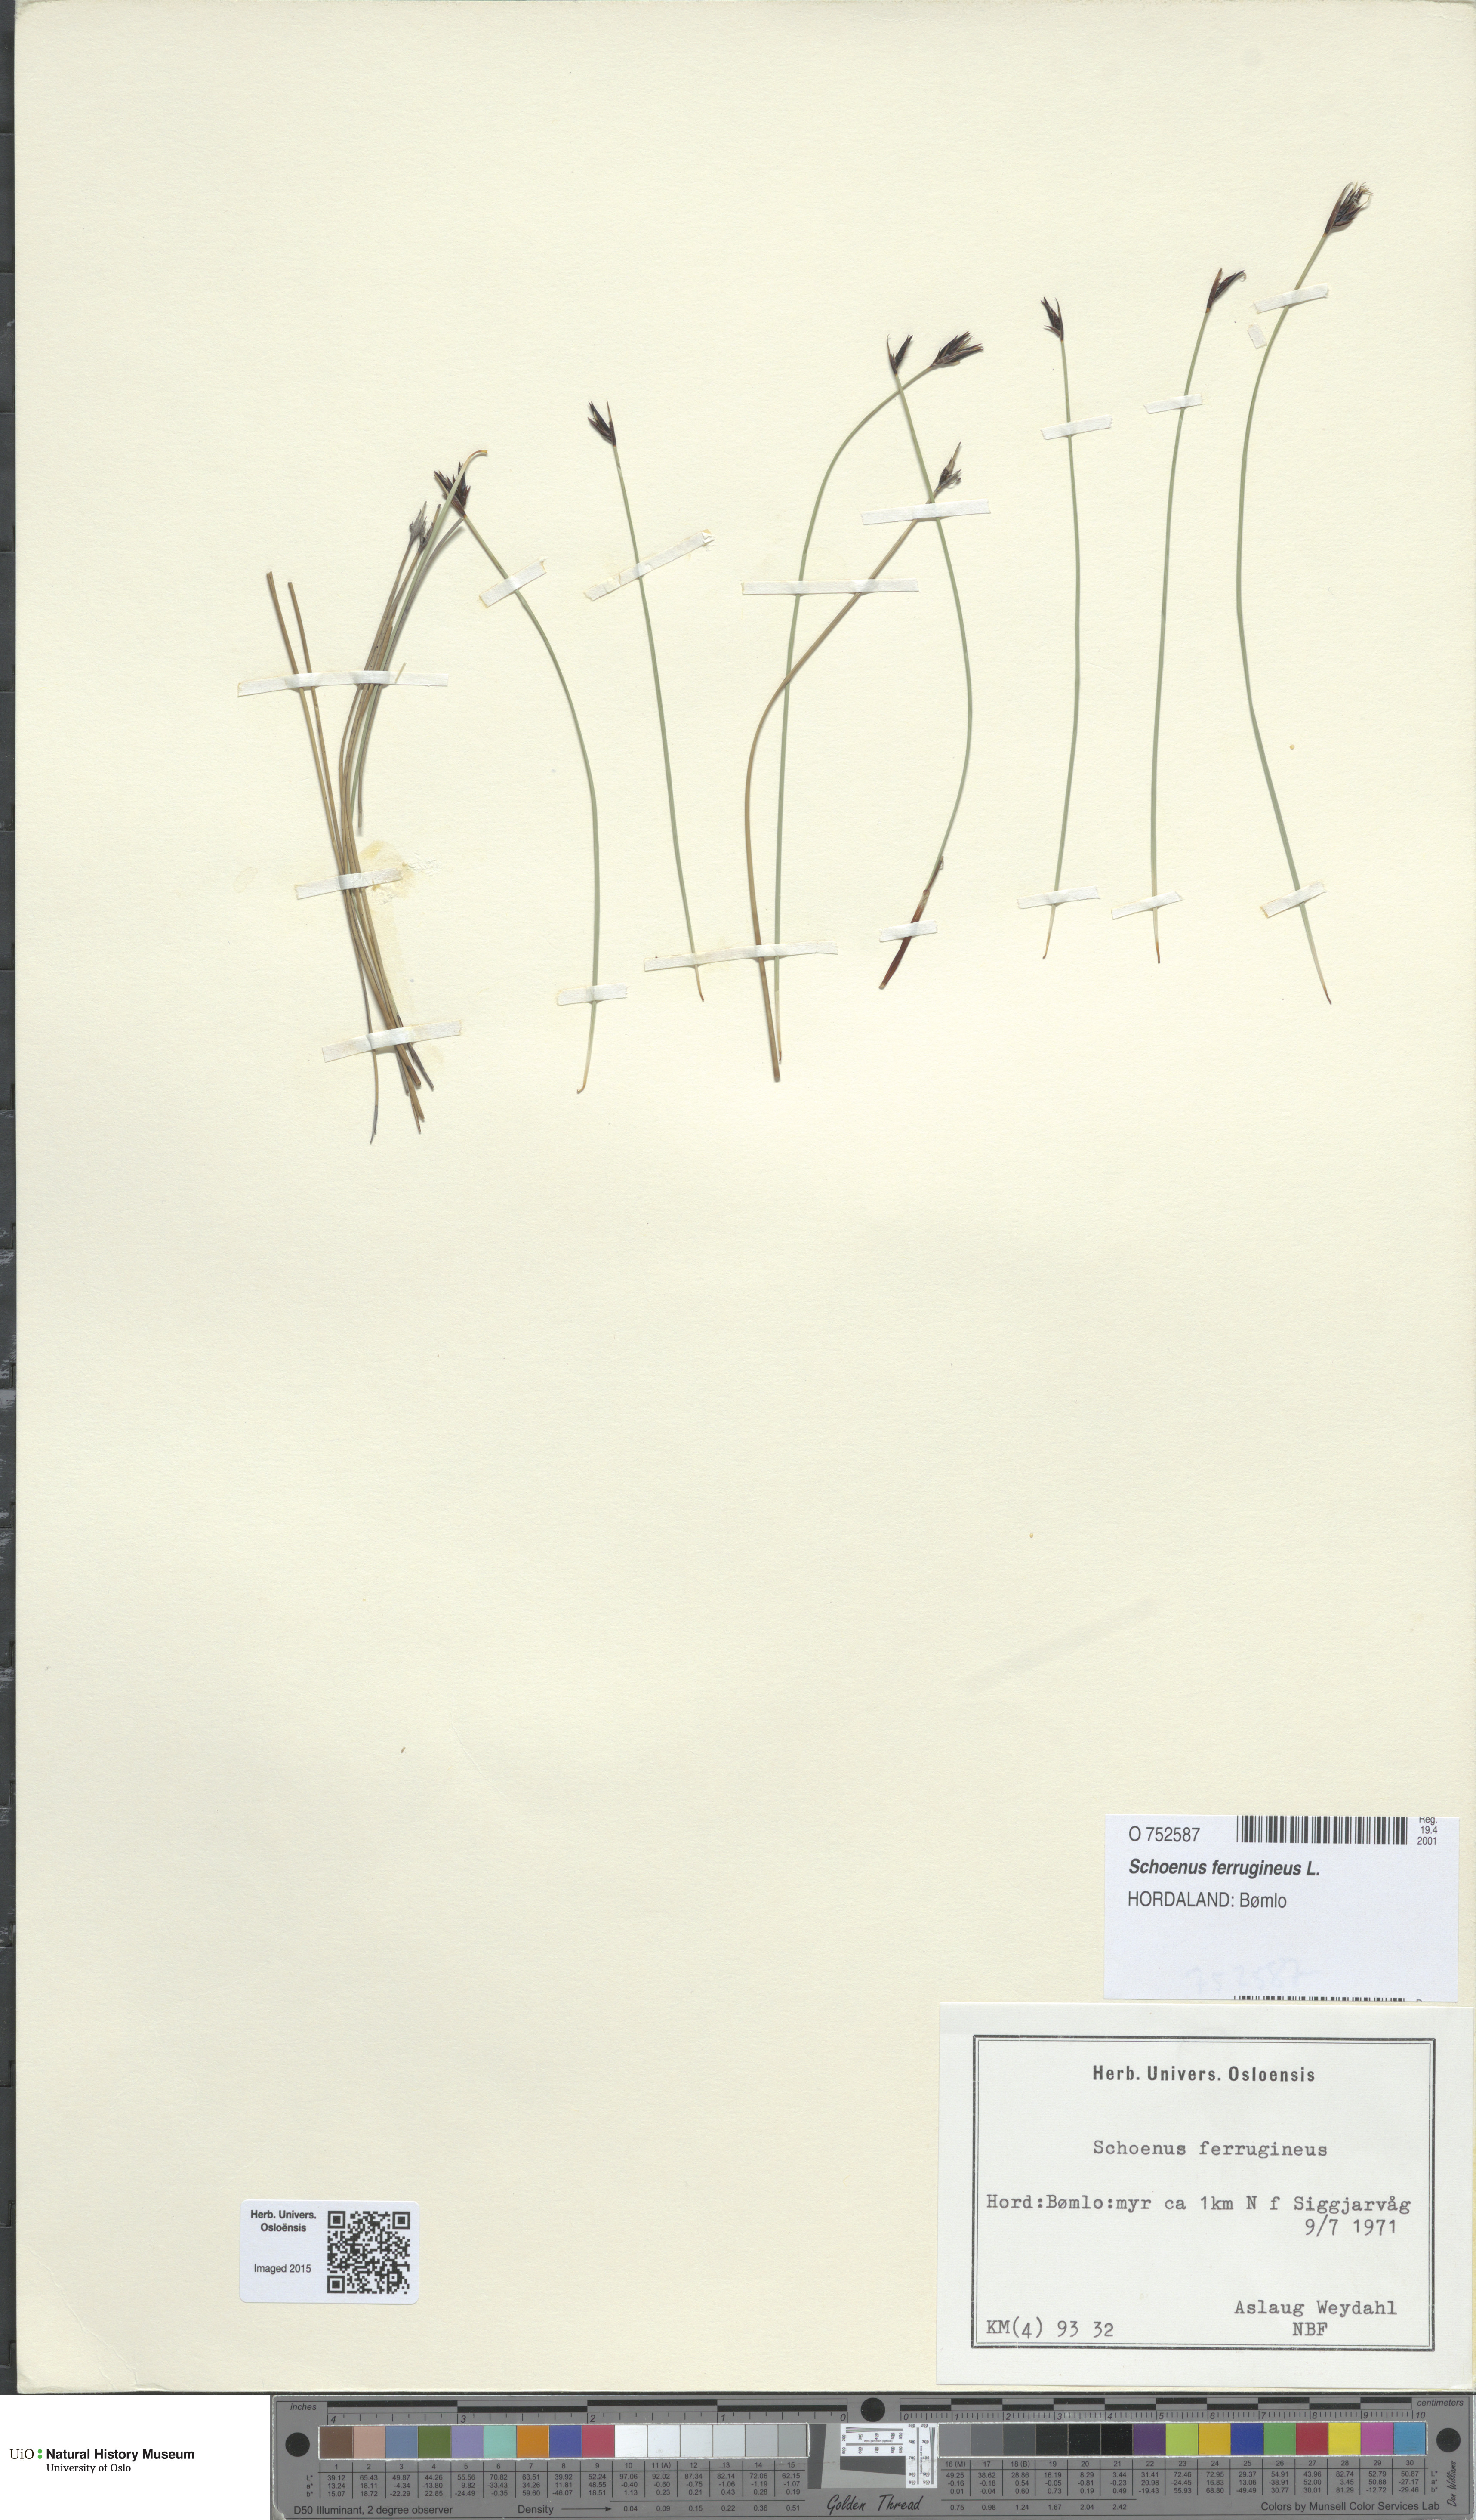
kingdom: Plantae
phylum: Tracheophyta
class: Liliopsida
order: Poales
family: Cyperaceae
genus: Schoenus
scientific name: Schoenus ferrugineus
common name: Brown bog-rush
